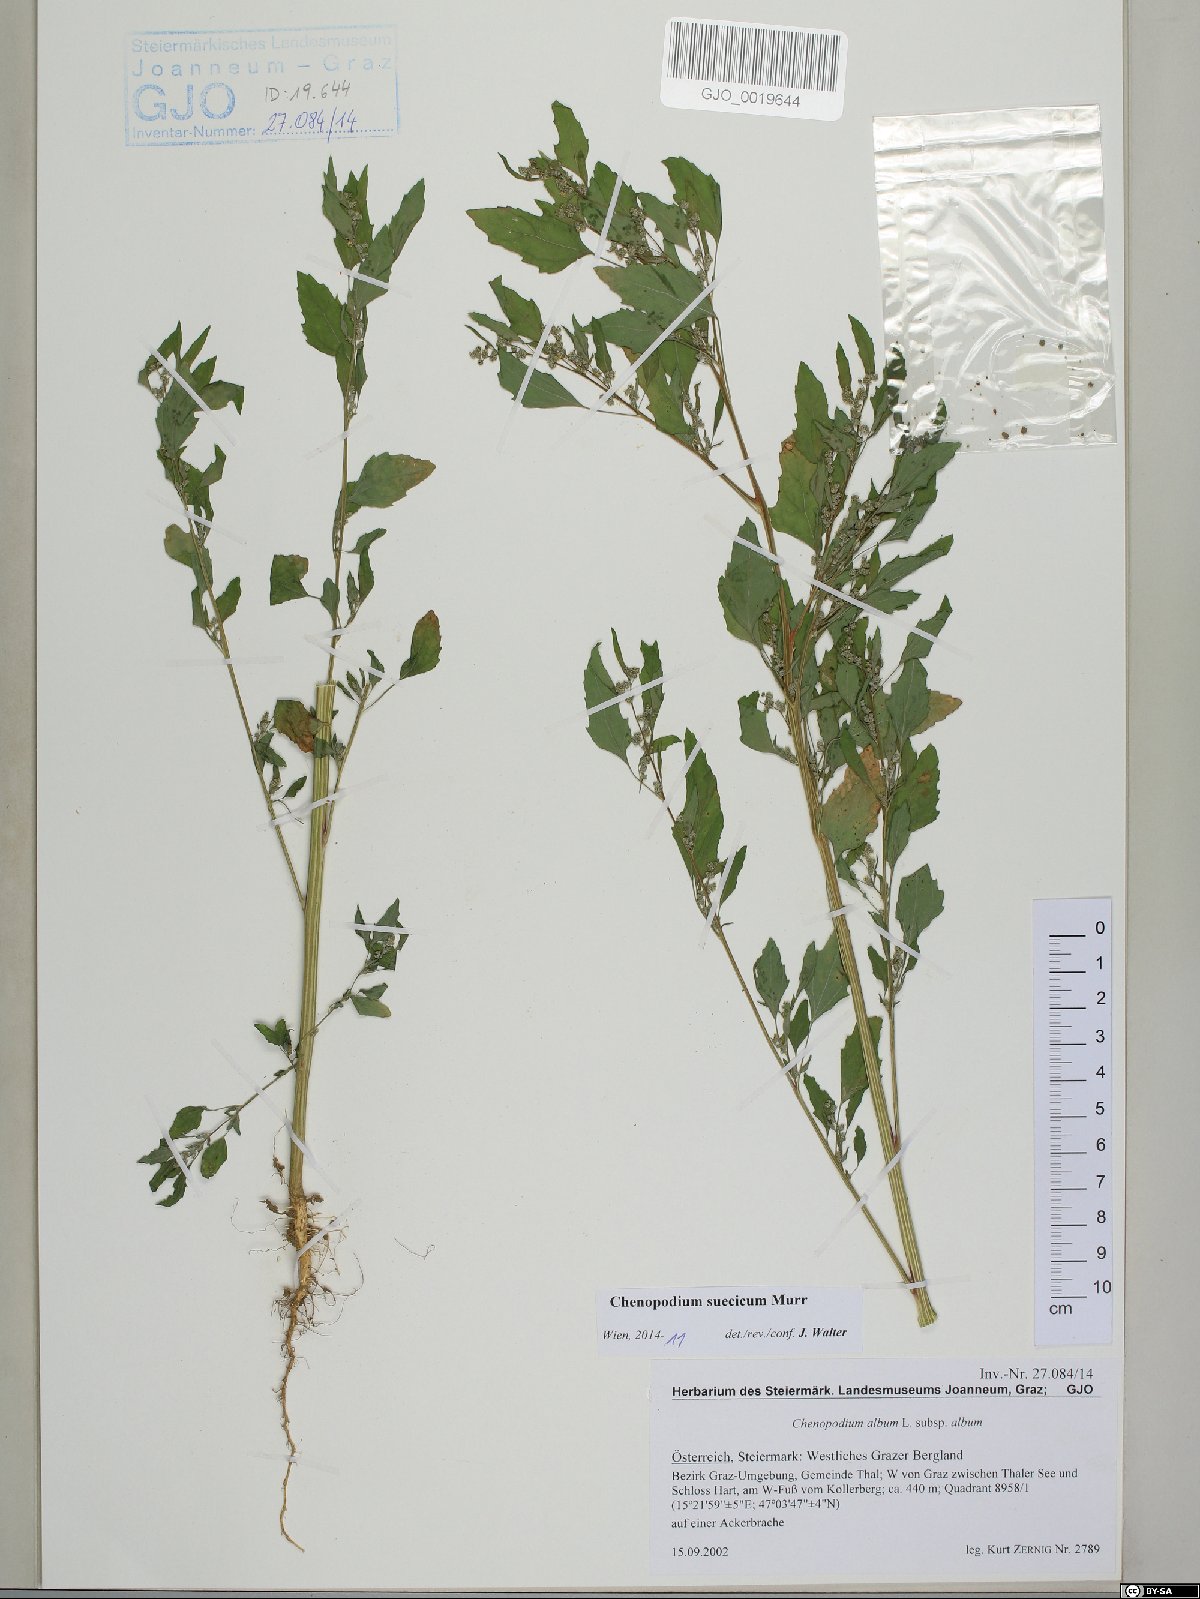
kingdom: Plantae
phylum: Tracheophyta
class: Magnoliopsida
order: Caryophyllales
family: Amaranthaceae
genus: Chenopodium
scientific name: Chenopodium suecicum
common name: Swedish goosefoot
